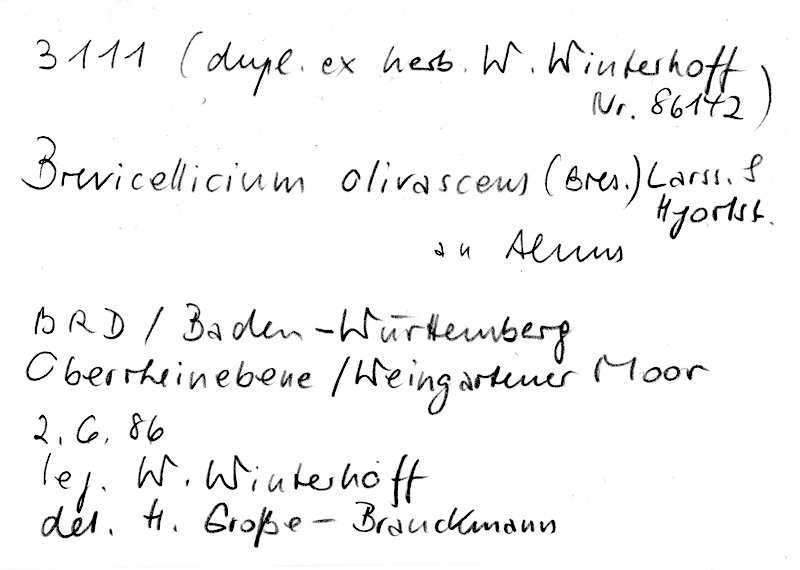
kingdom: Fungi
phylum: Basidiomycota
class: Agaricomycetes
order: Trechisporales
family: Hydnodontaceae
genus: Brevicellicium
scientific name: Brevicellicium olivascens
